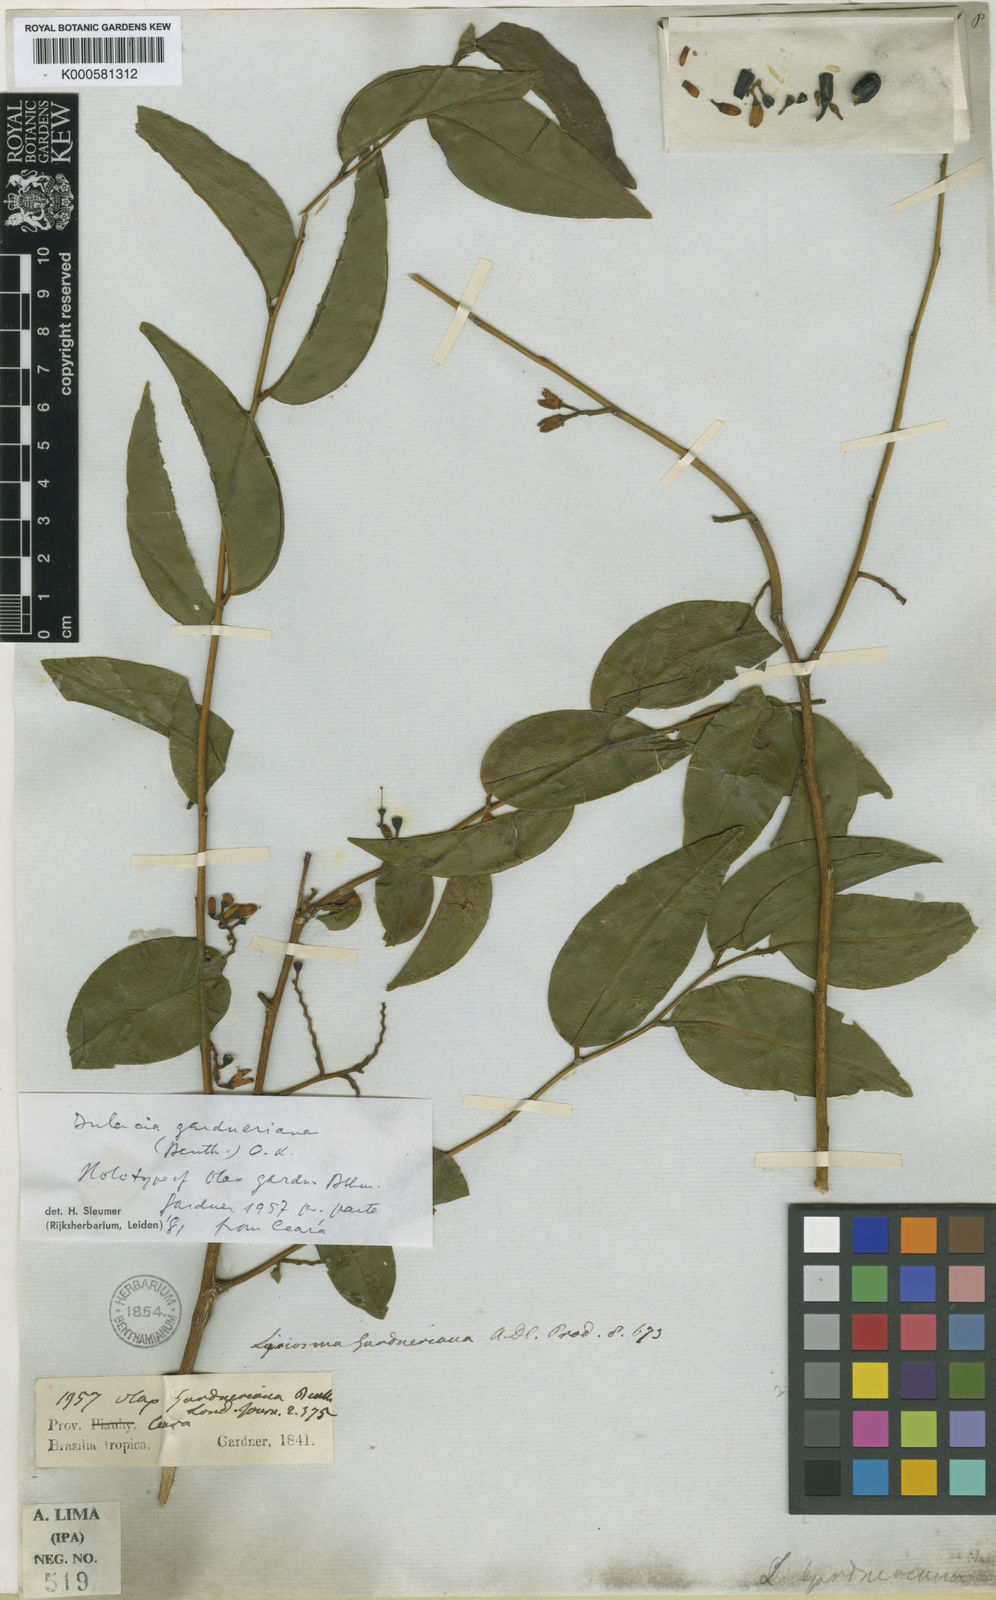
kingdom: Plantae
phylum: Tracheophyta
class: Magnoliopsida
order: Santalales
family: Olacaceae
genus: Dulacia
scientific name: Dulacia gardneriana
